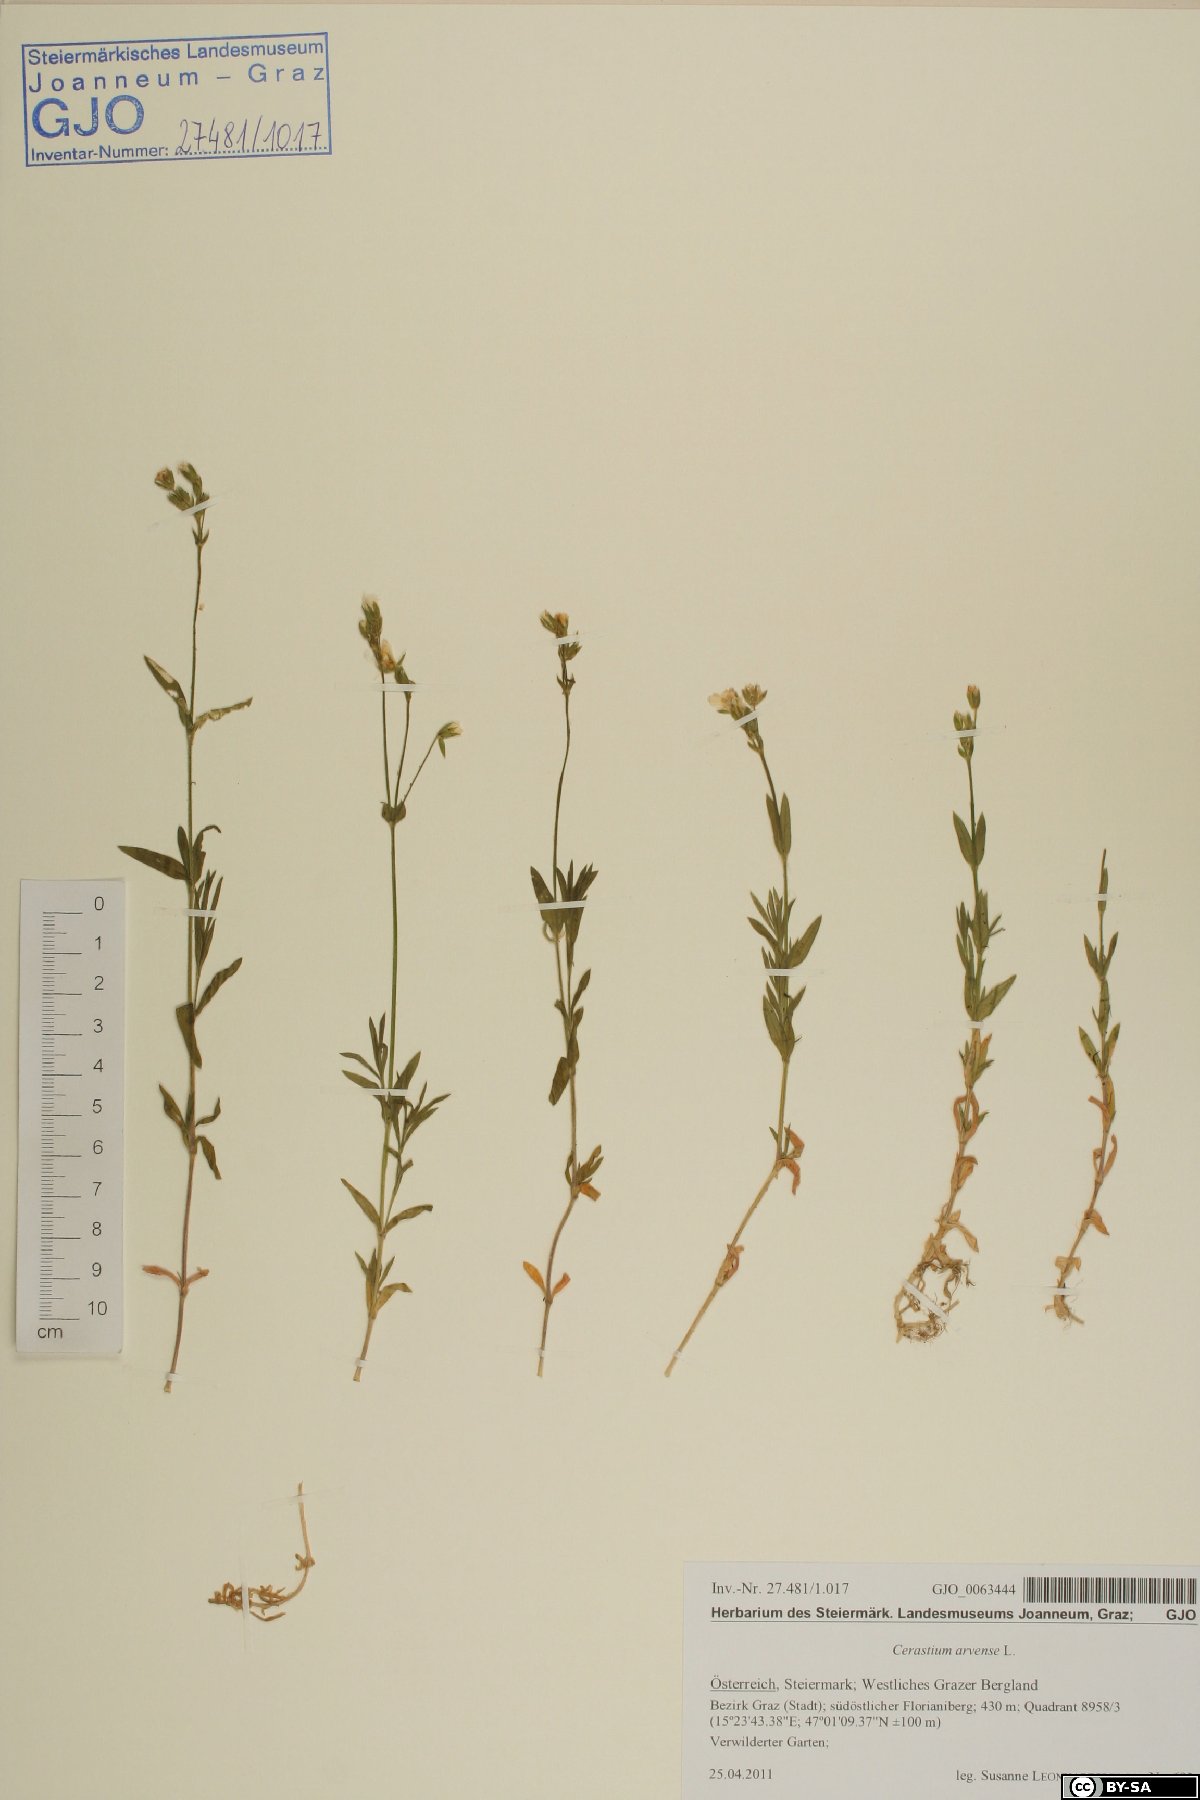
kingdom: Plantae
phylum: Tracheophyta
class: Magnoliopsida
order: Caryophyllales
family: Caryophyllaceae
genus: Cerastium
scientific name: Cerastium arvense
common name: Field mouse-ear
